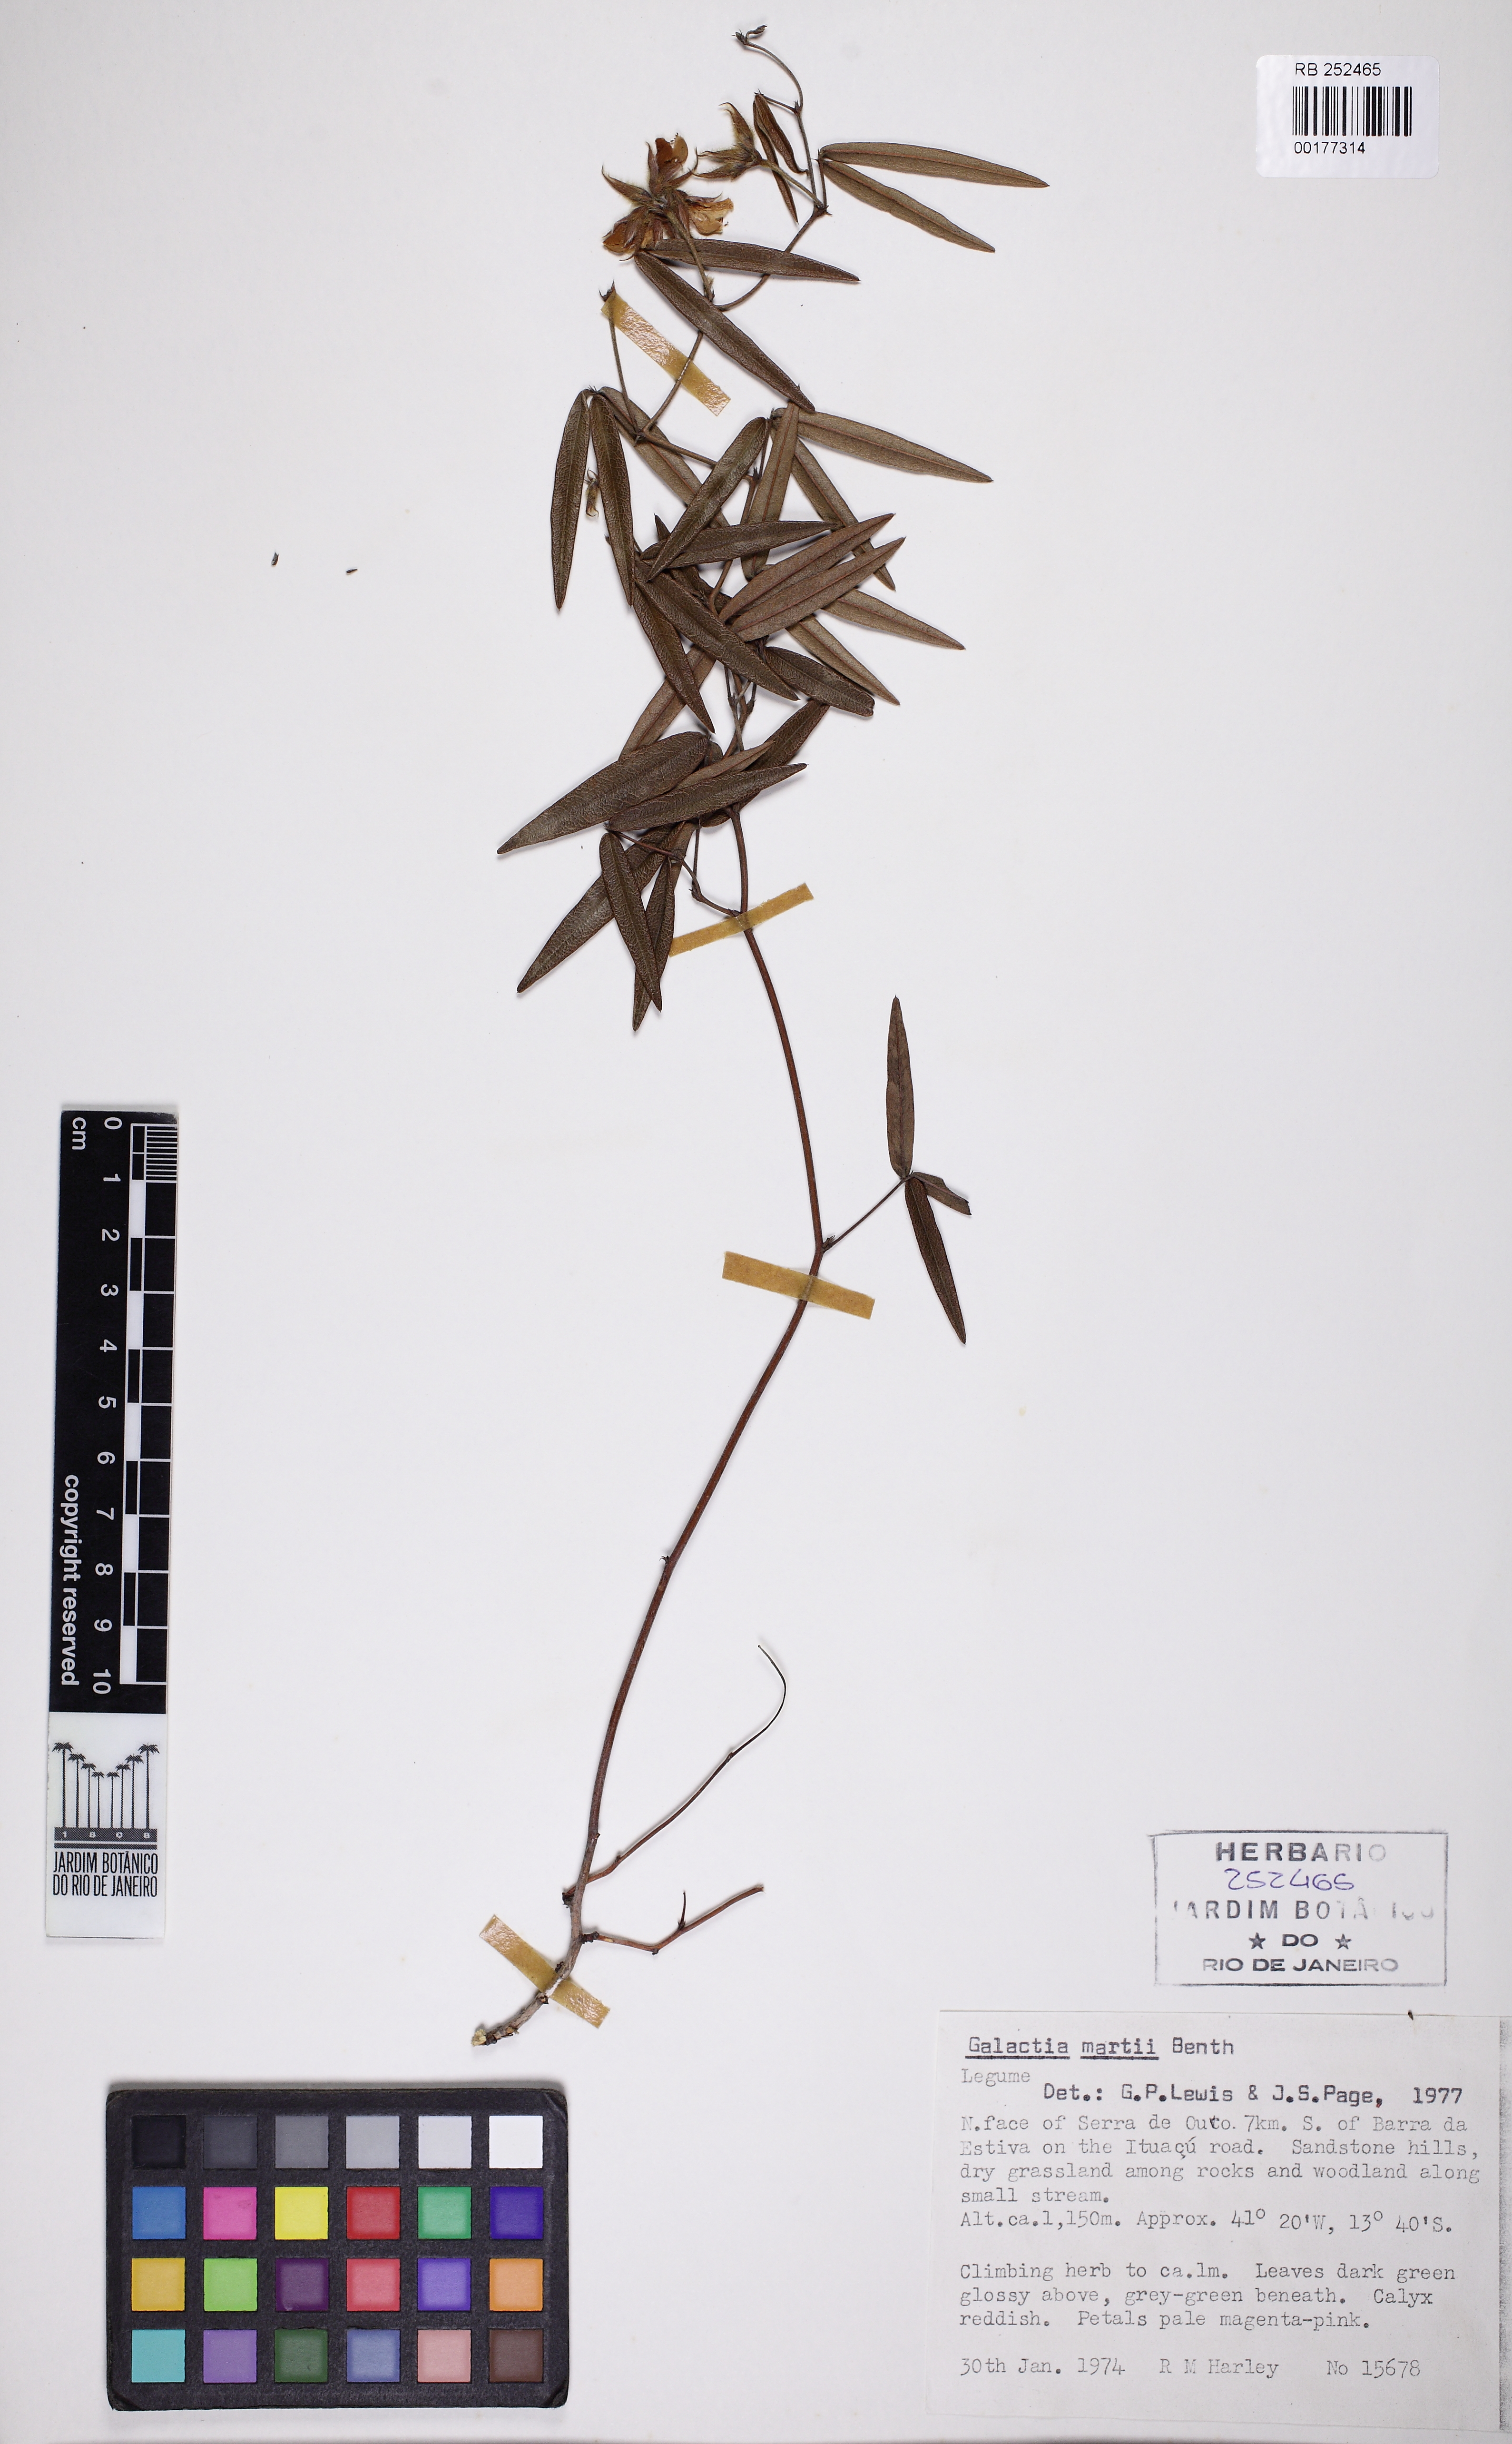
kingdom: Plantae
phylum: Tracheophyta
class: Magnoliopsida
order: Fabales
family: Fabaceae
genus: Betencourtia
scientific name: Betencourtia martii
